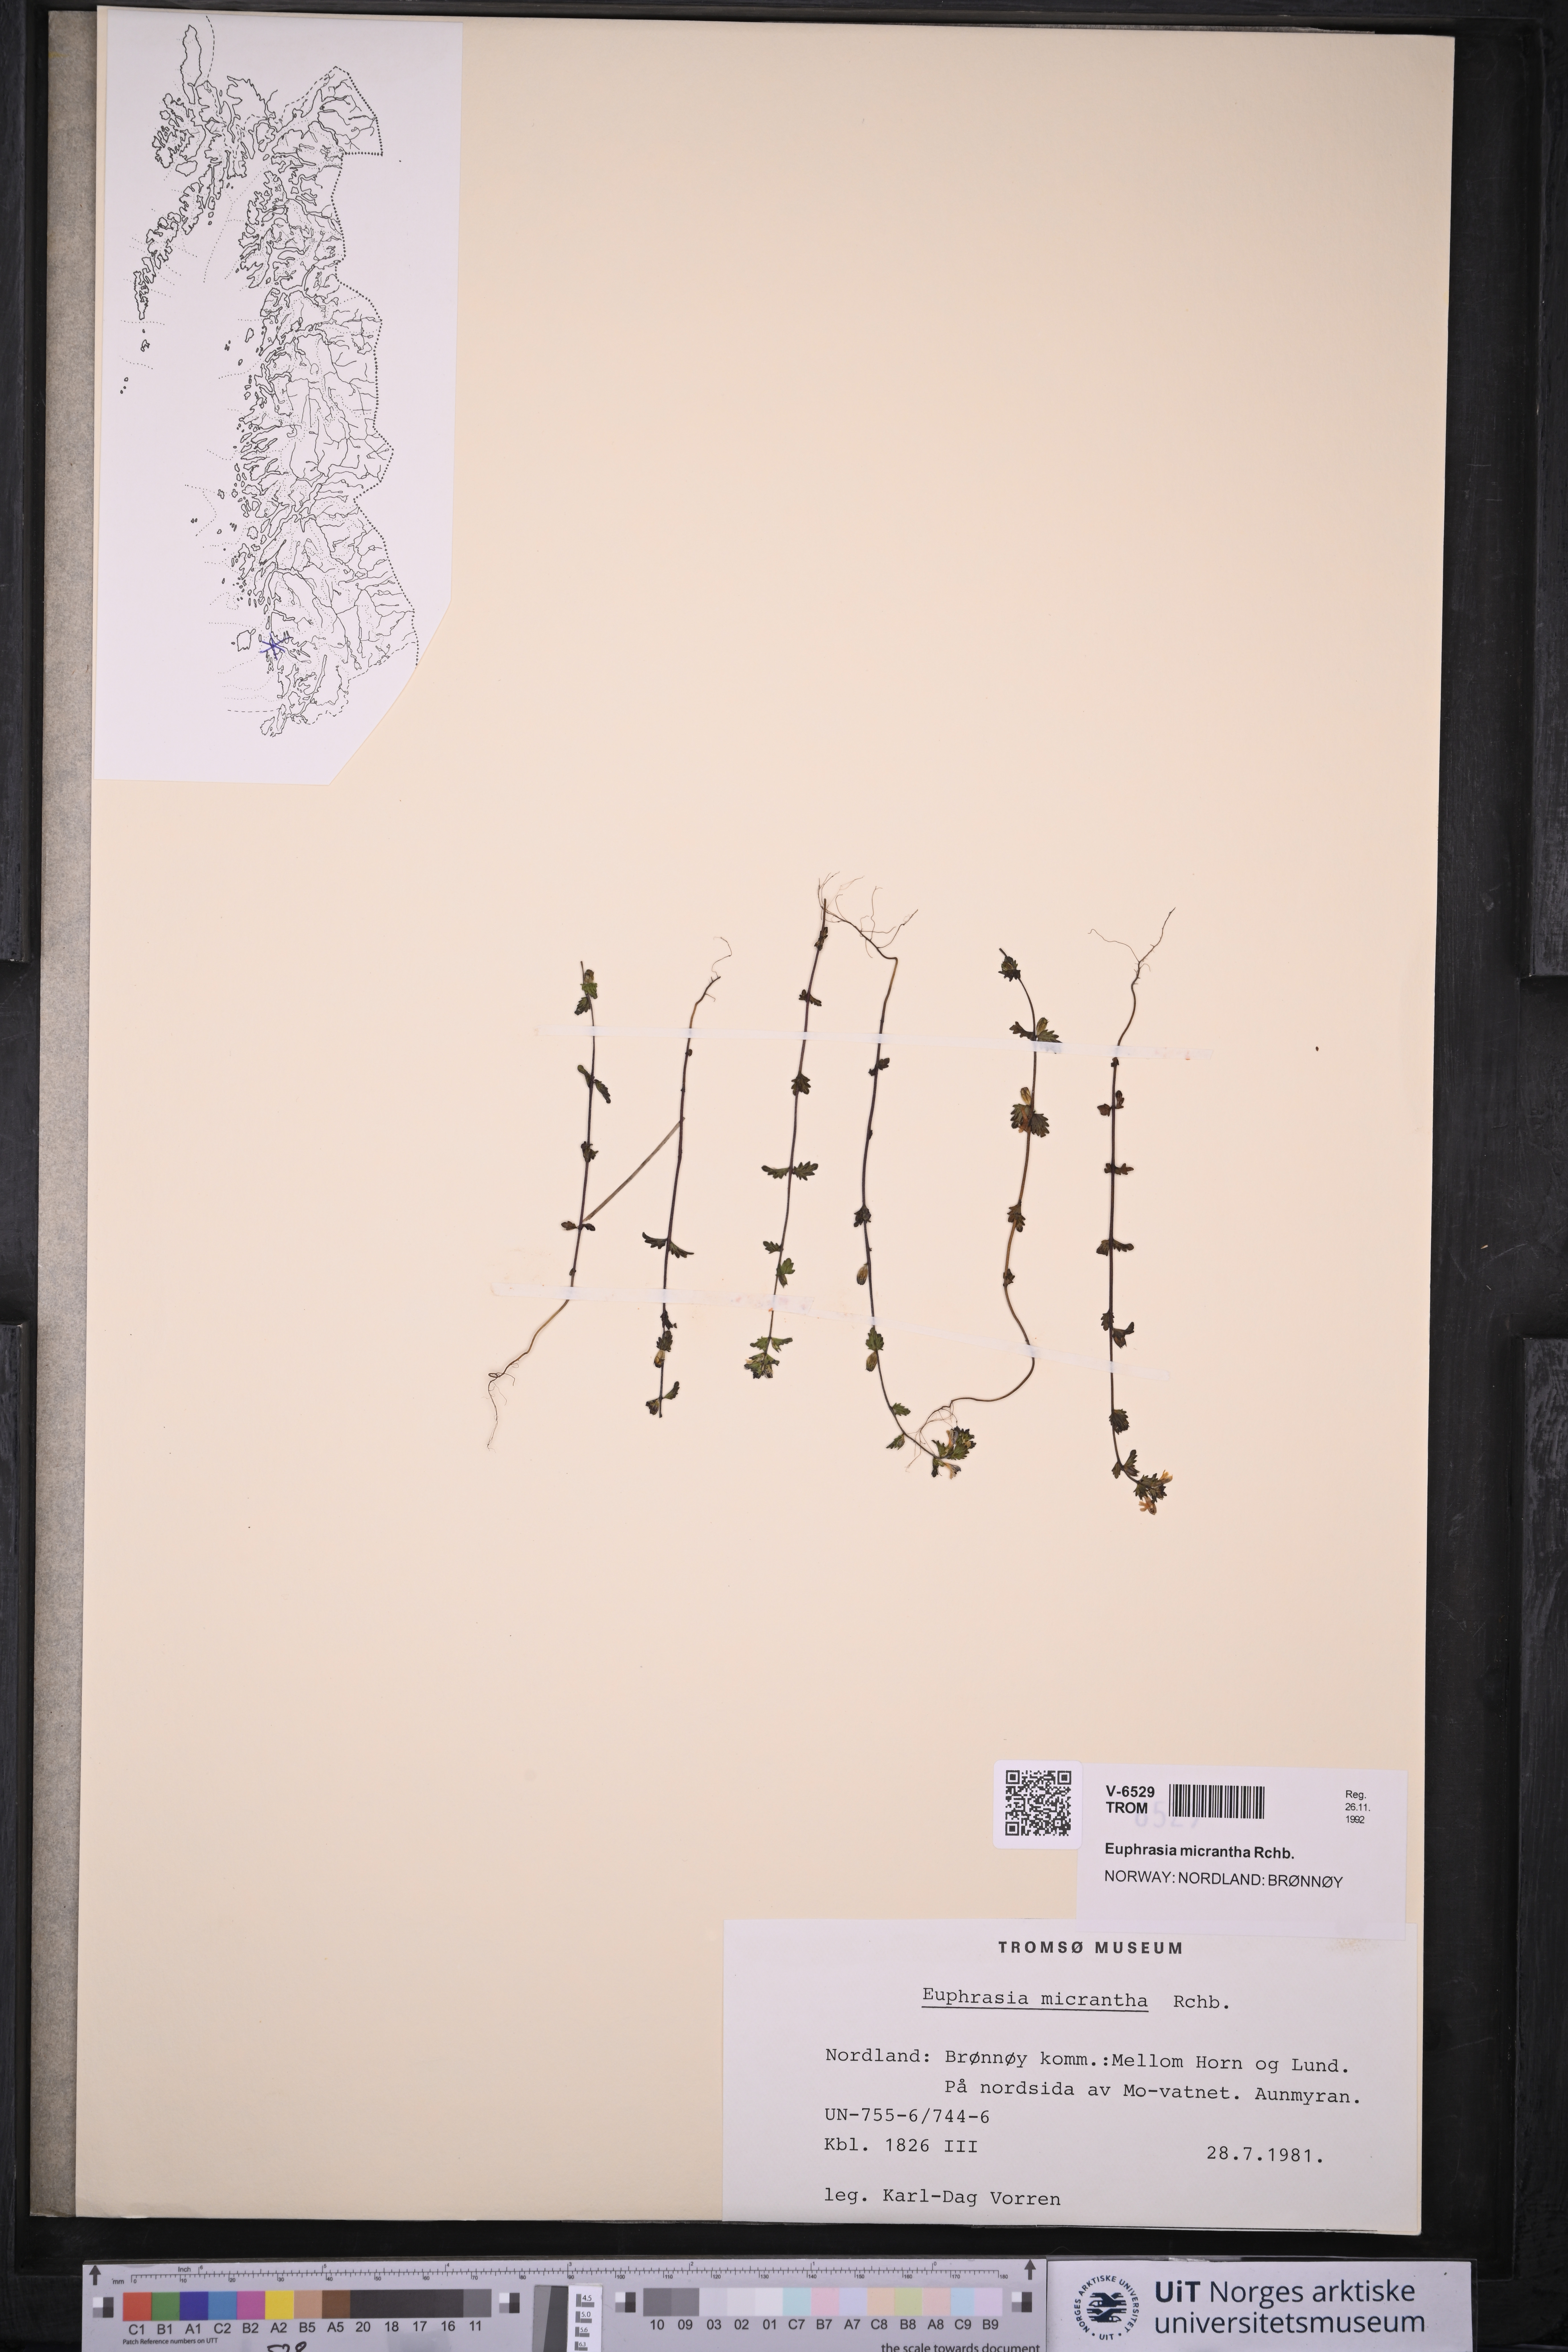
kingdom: Plantae
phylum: Tracheophyta
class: Magnoliopsida
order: Lamiales
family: Orobanchaceae
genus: Euphrasia
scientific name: Euphrasia micrantha
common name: Northern eyebright
